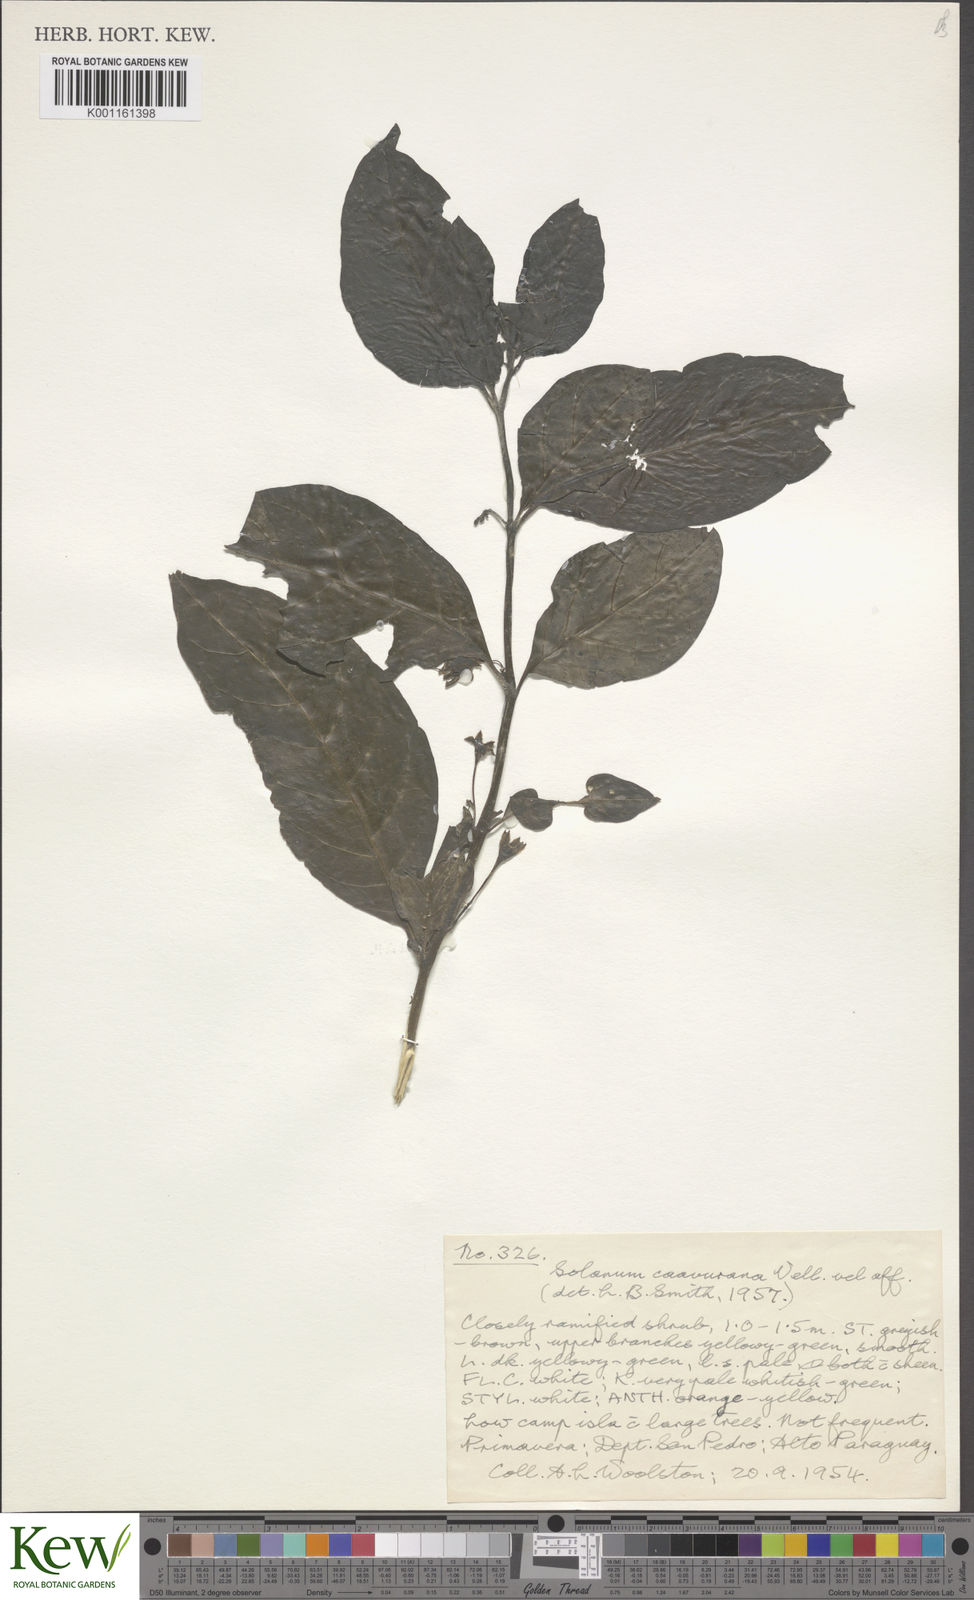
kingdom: Plantae
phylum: Tracheophyta
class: Magnoliopsida
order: Solanales
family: Solanaceae
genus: Solanum
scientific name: Solanum caavurana
